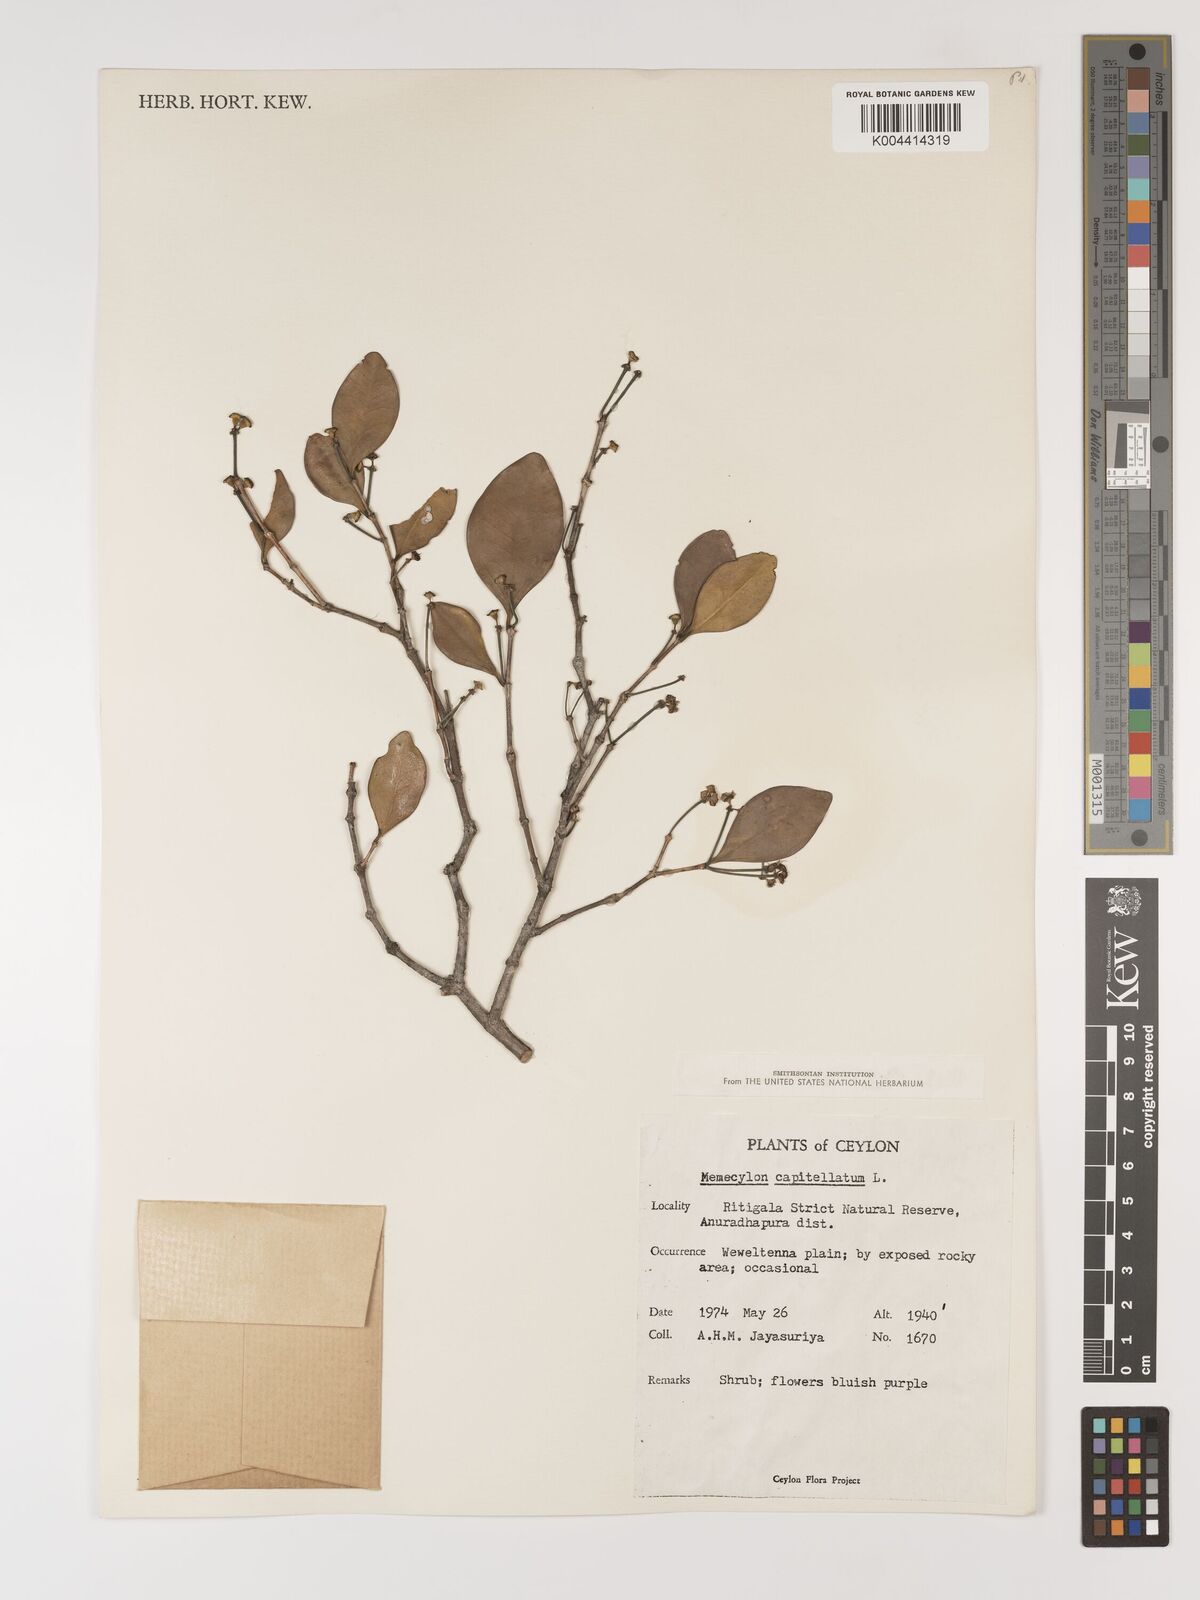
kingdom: Plantae
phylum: Tracheophyta
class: Magnoliopsida
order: Myrtales
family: Melastomataceae
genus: Memecylon
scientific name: Memecylon capitellatum
